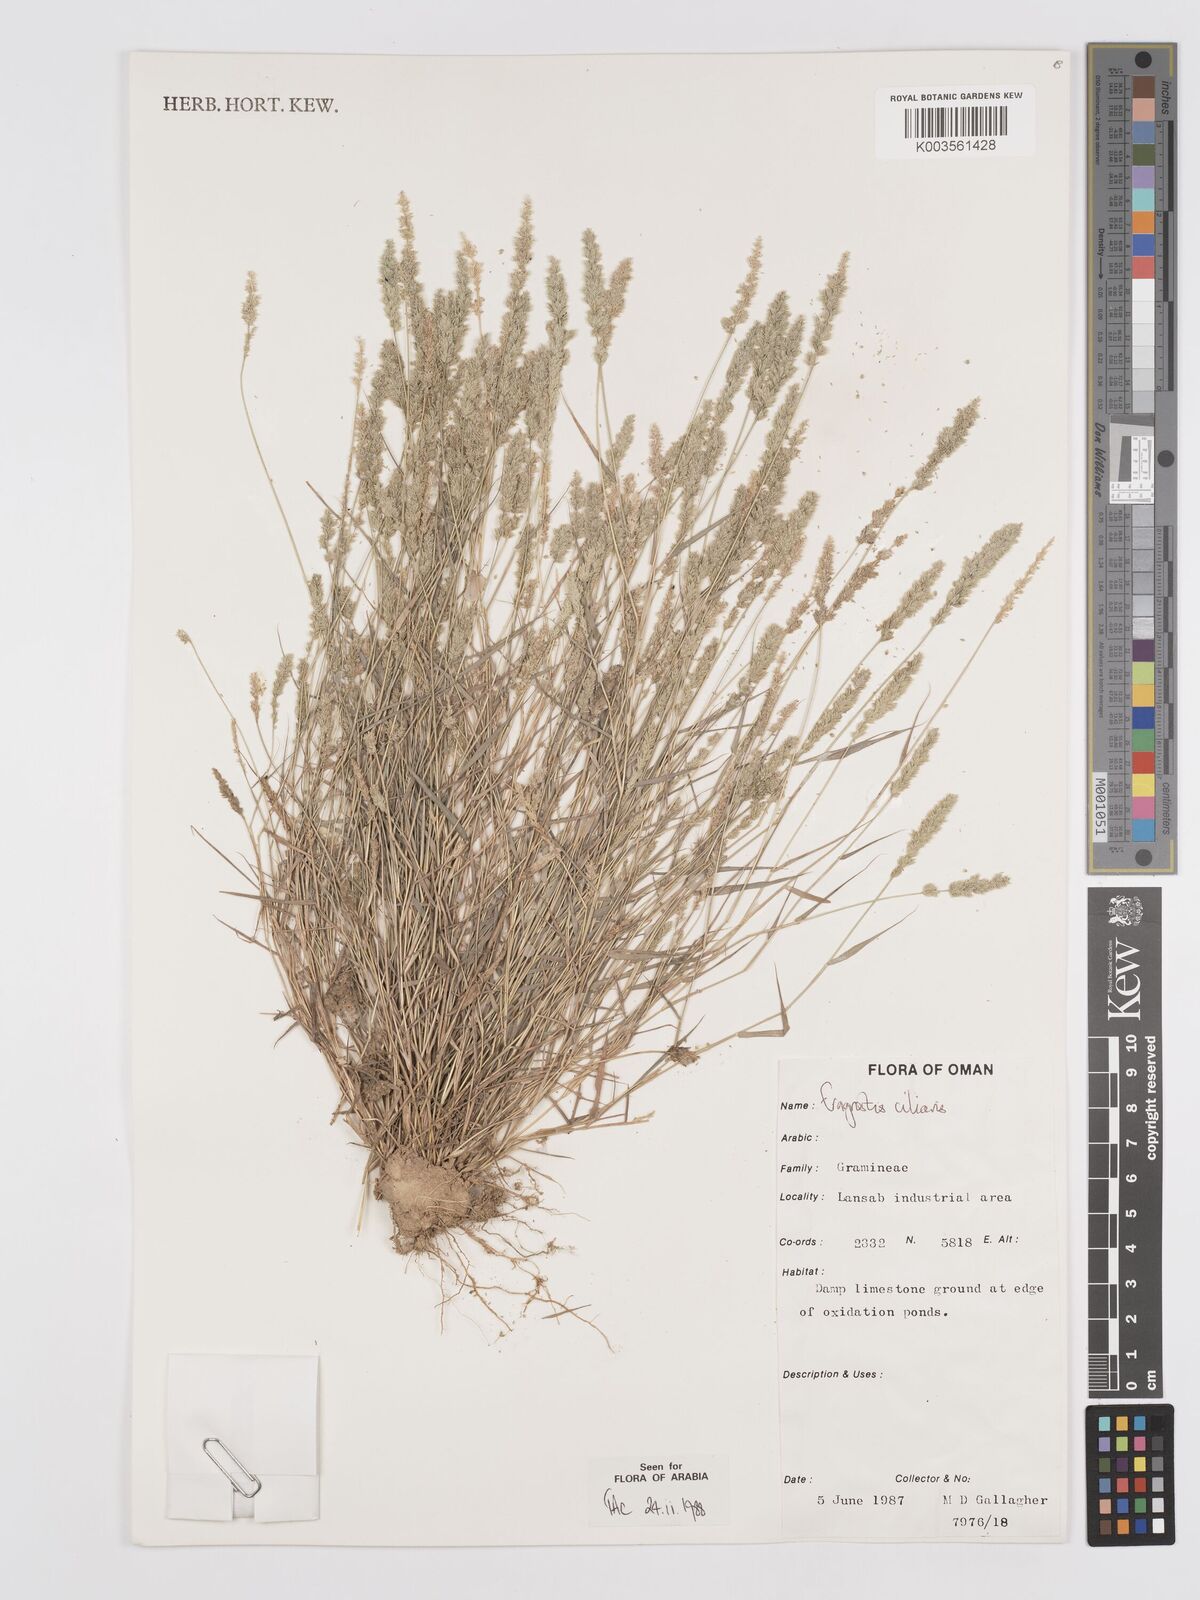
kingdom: Plantae
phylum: Tracheophyta
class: Liliopsida
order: Poales
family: Poaceae
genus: Eragrostis
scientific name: Eragrostis ciliaris
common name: Gophertail lovegrass
